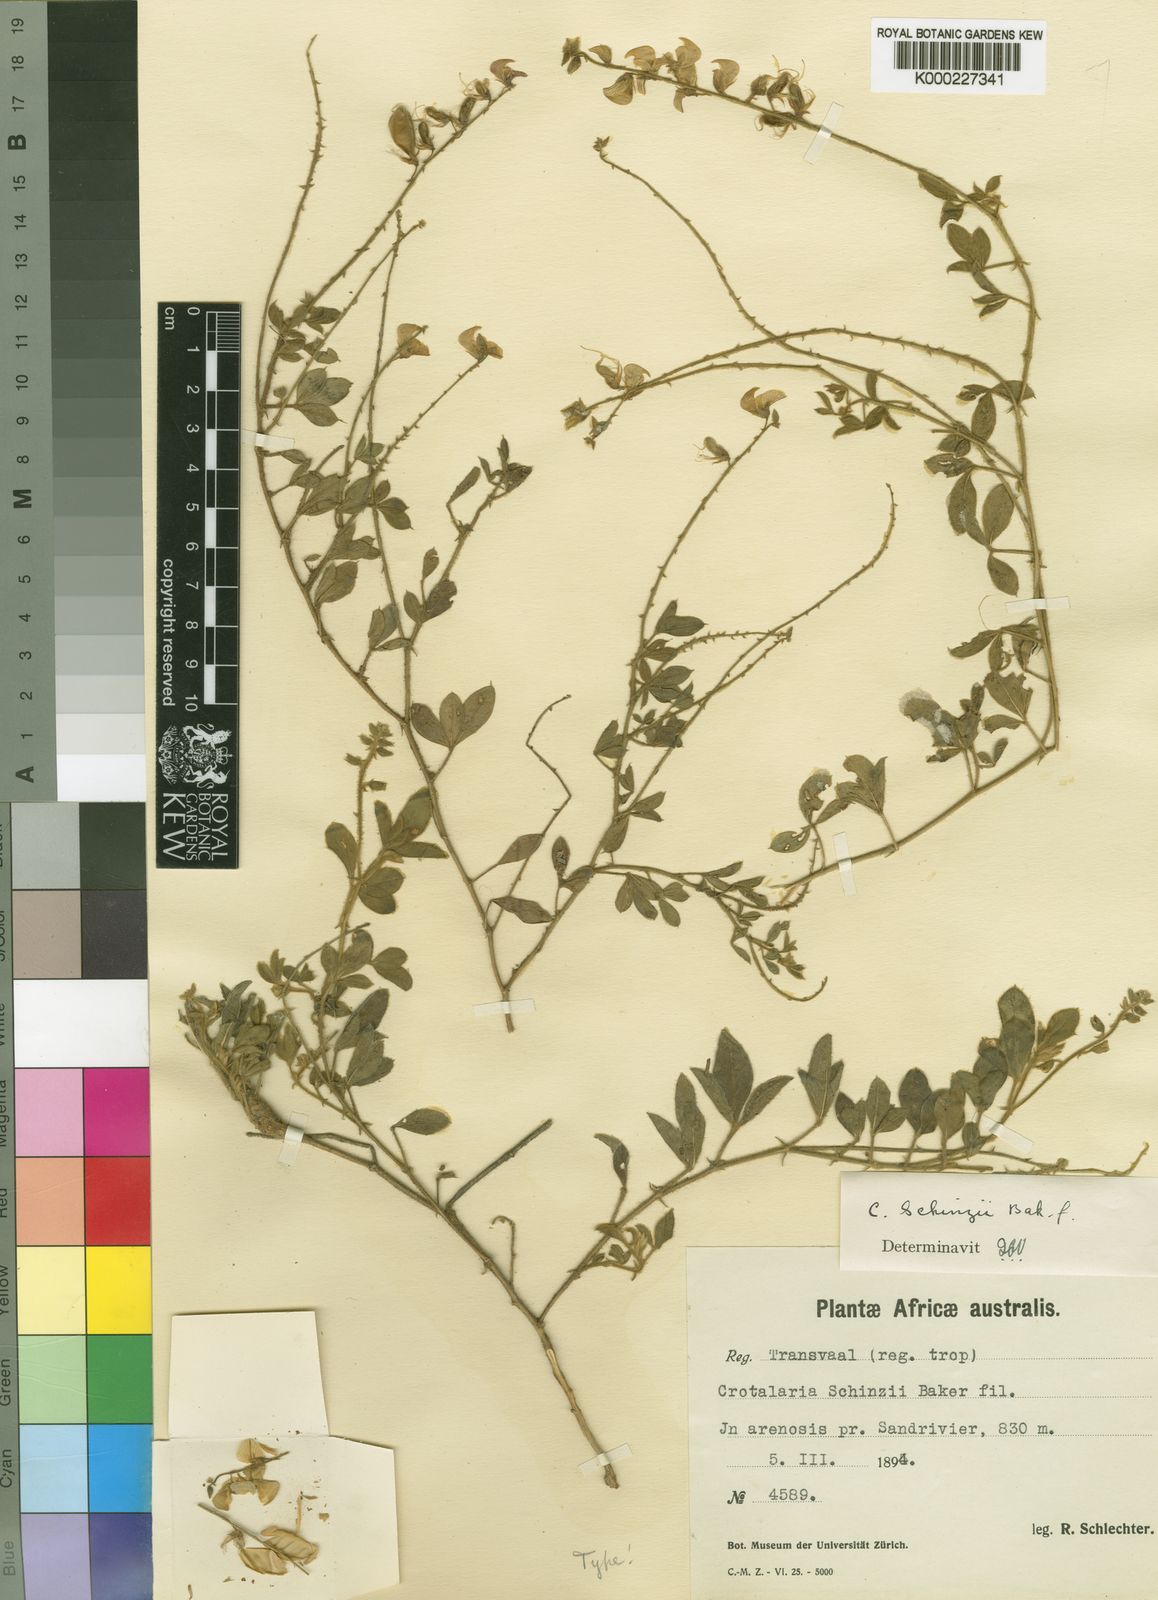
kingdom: Plantae
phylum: Tracheophyta
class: Magnoliopsida
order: Fabales
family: Fabaceae
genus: Crotalaria
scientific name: Crotalaria schinzii
